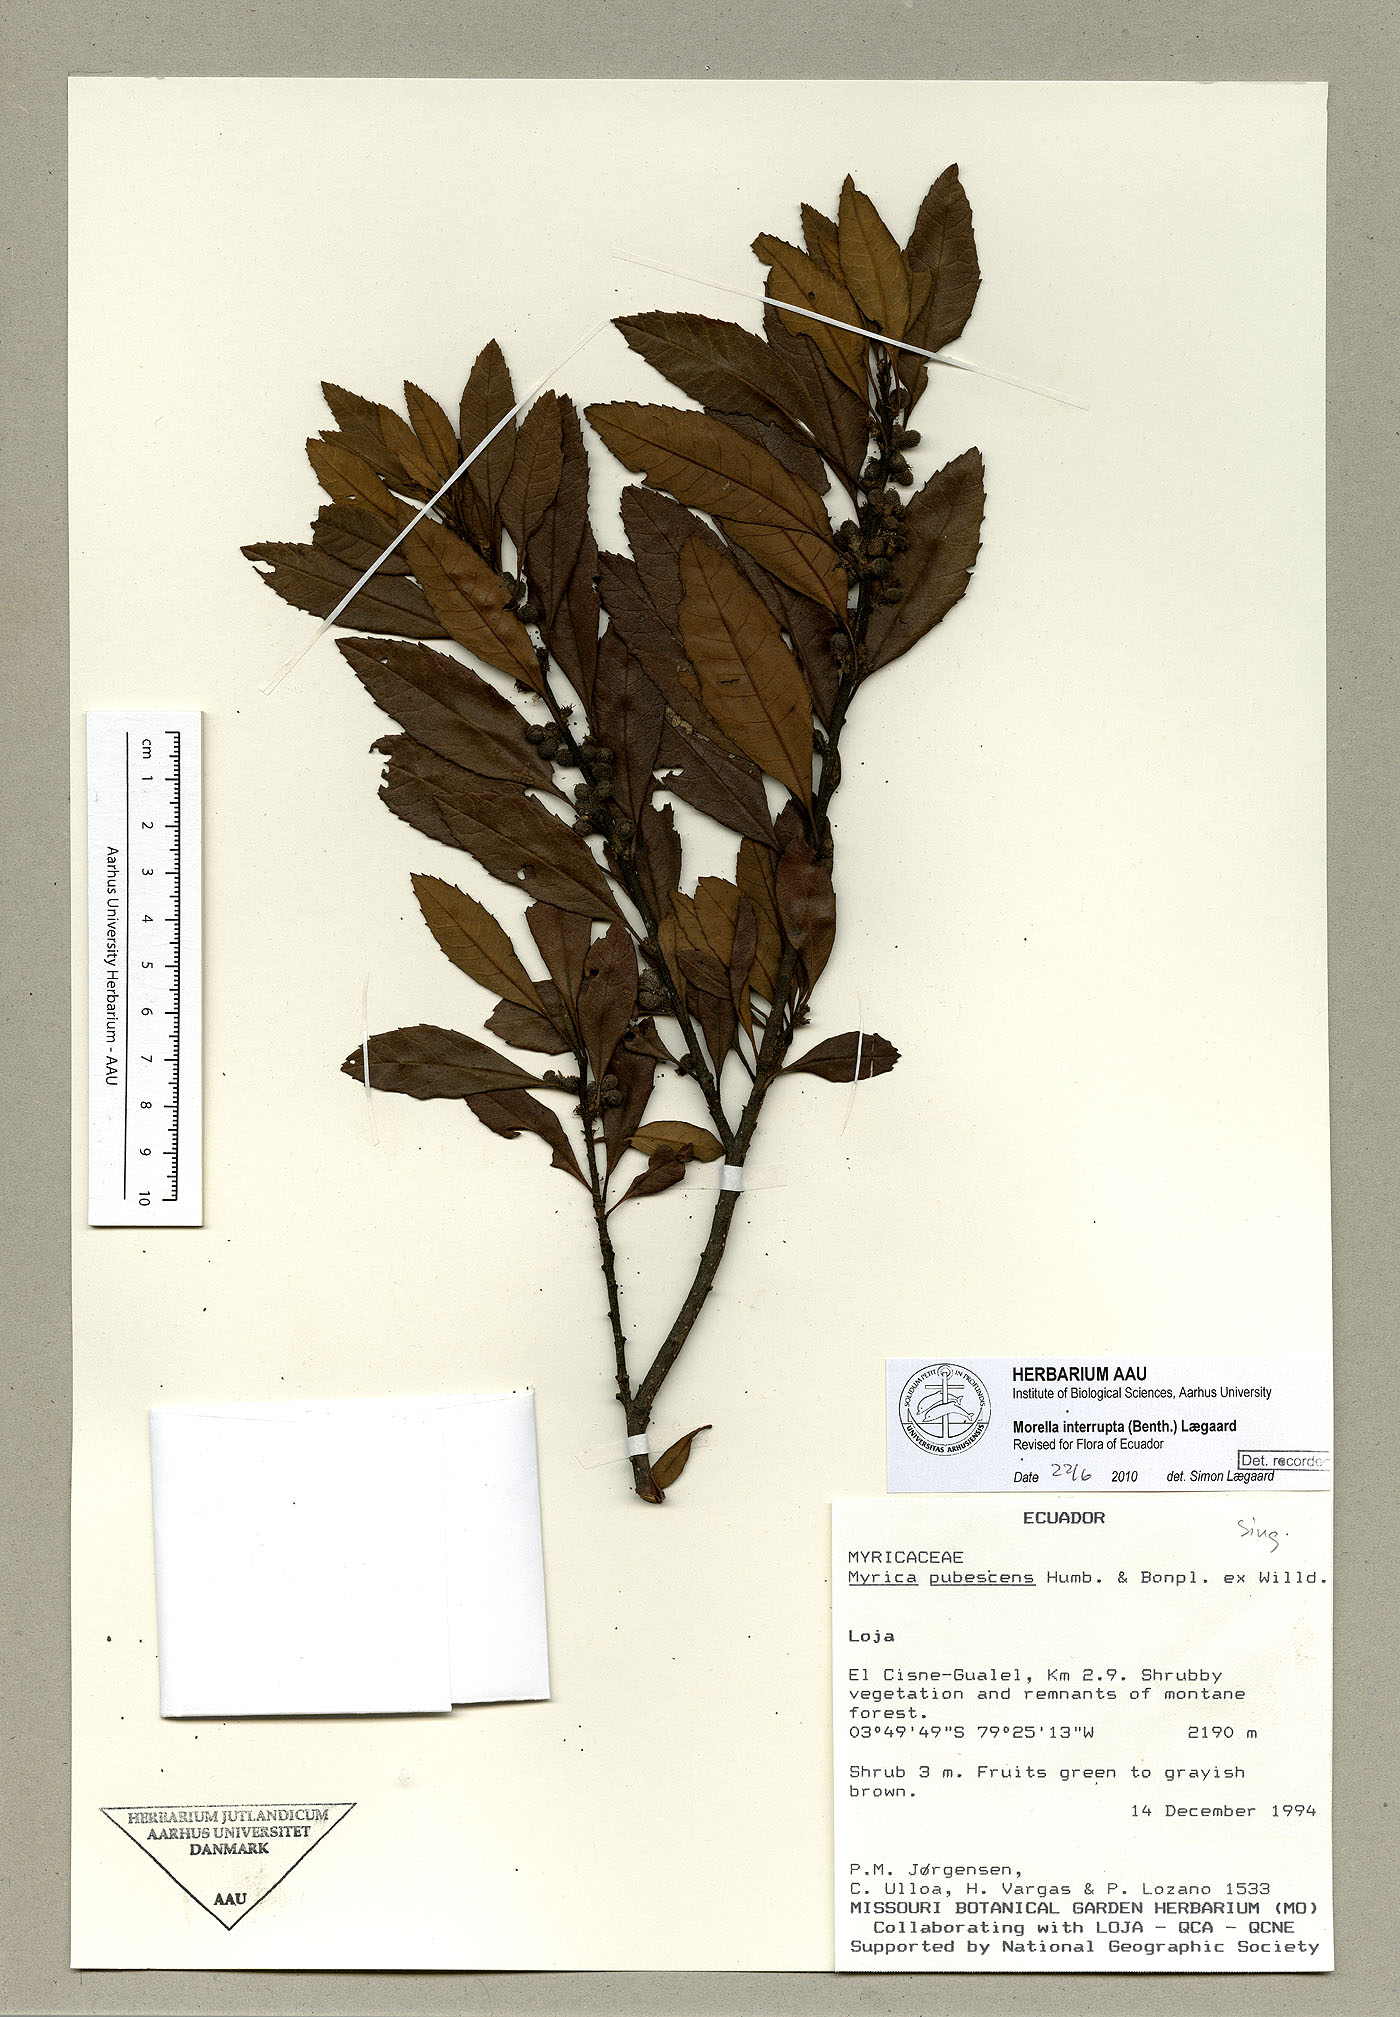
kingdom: Plantae
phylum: Tracheophyta
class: Magnoliopsida
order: Fagales
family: Myricaceae
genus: Morella
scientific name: Morella interrupta
